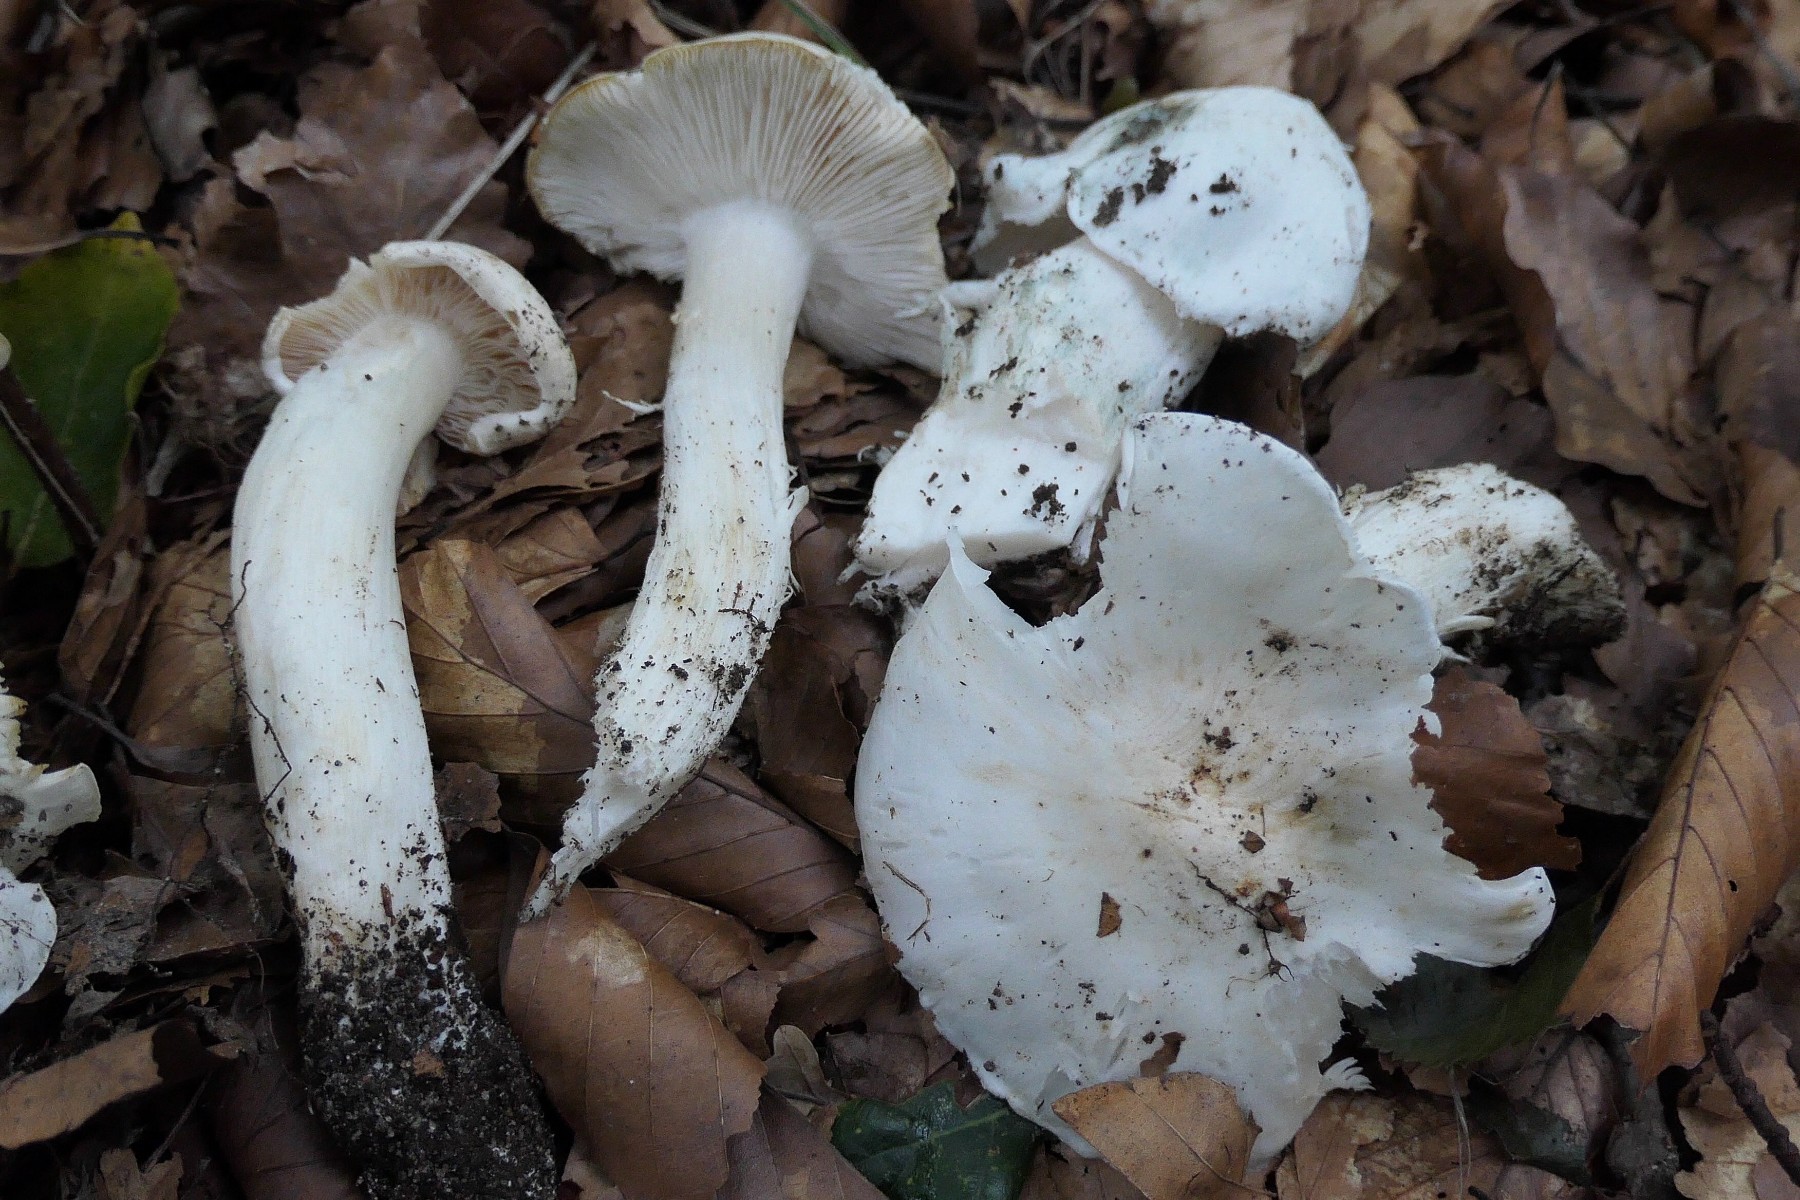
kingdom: Fungi
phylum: Basidiomycota
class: Agaricomycetes
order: Agaricales
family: Tricholomataceae
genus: Tricholoma
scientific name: Tricholoma columbetta
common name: silke-ridderhat
